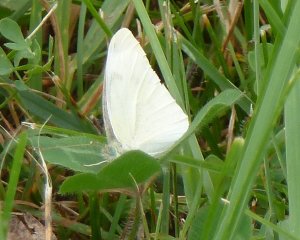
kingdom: Animalia
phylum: Arthropoda
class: Insecta
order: Lepidoptera
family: Pieridae
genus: Pieris
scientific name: Pieris rapae
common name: Cabbage White
